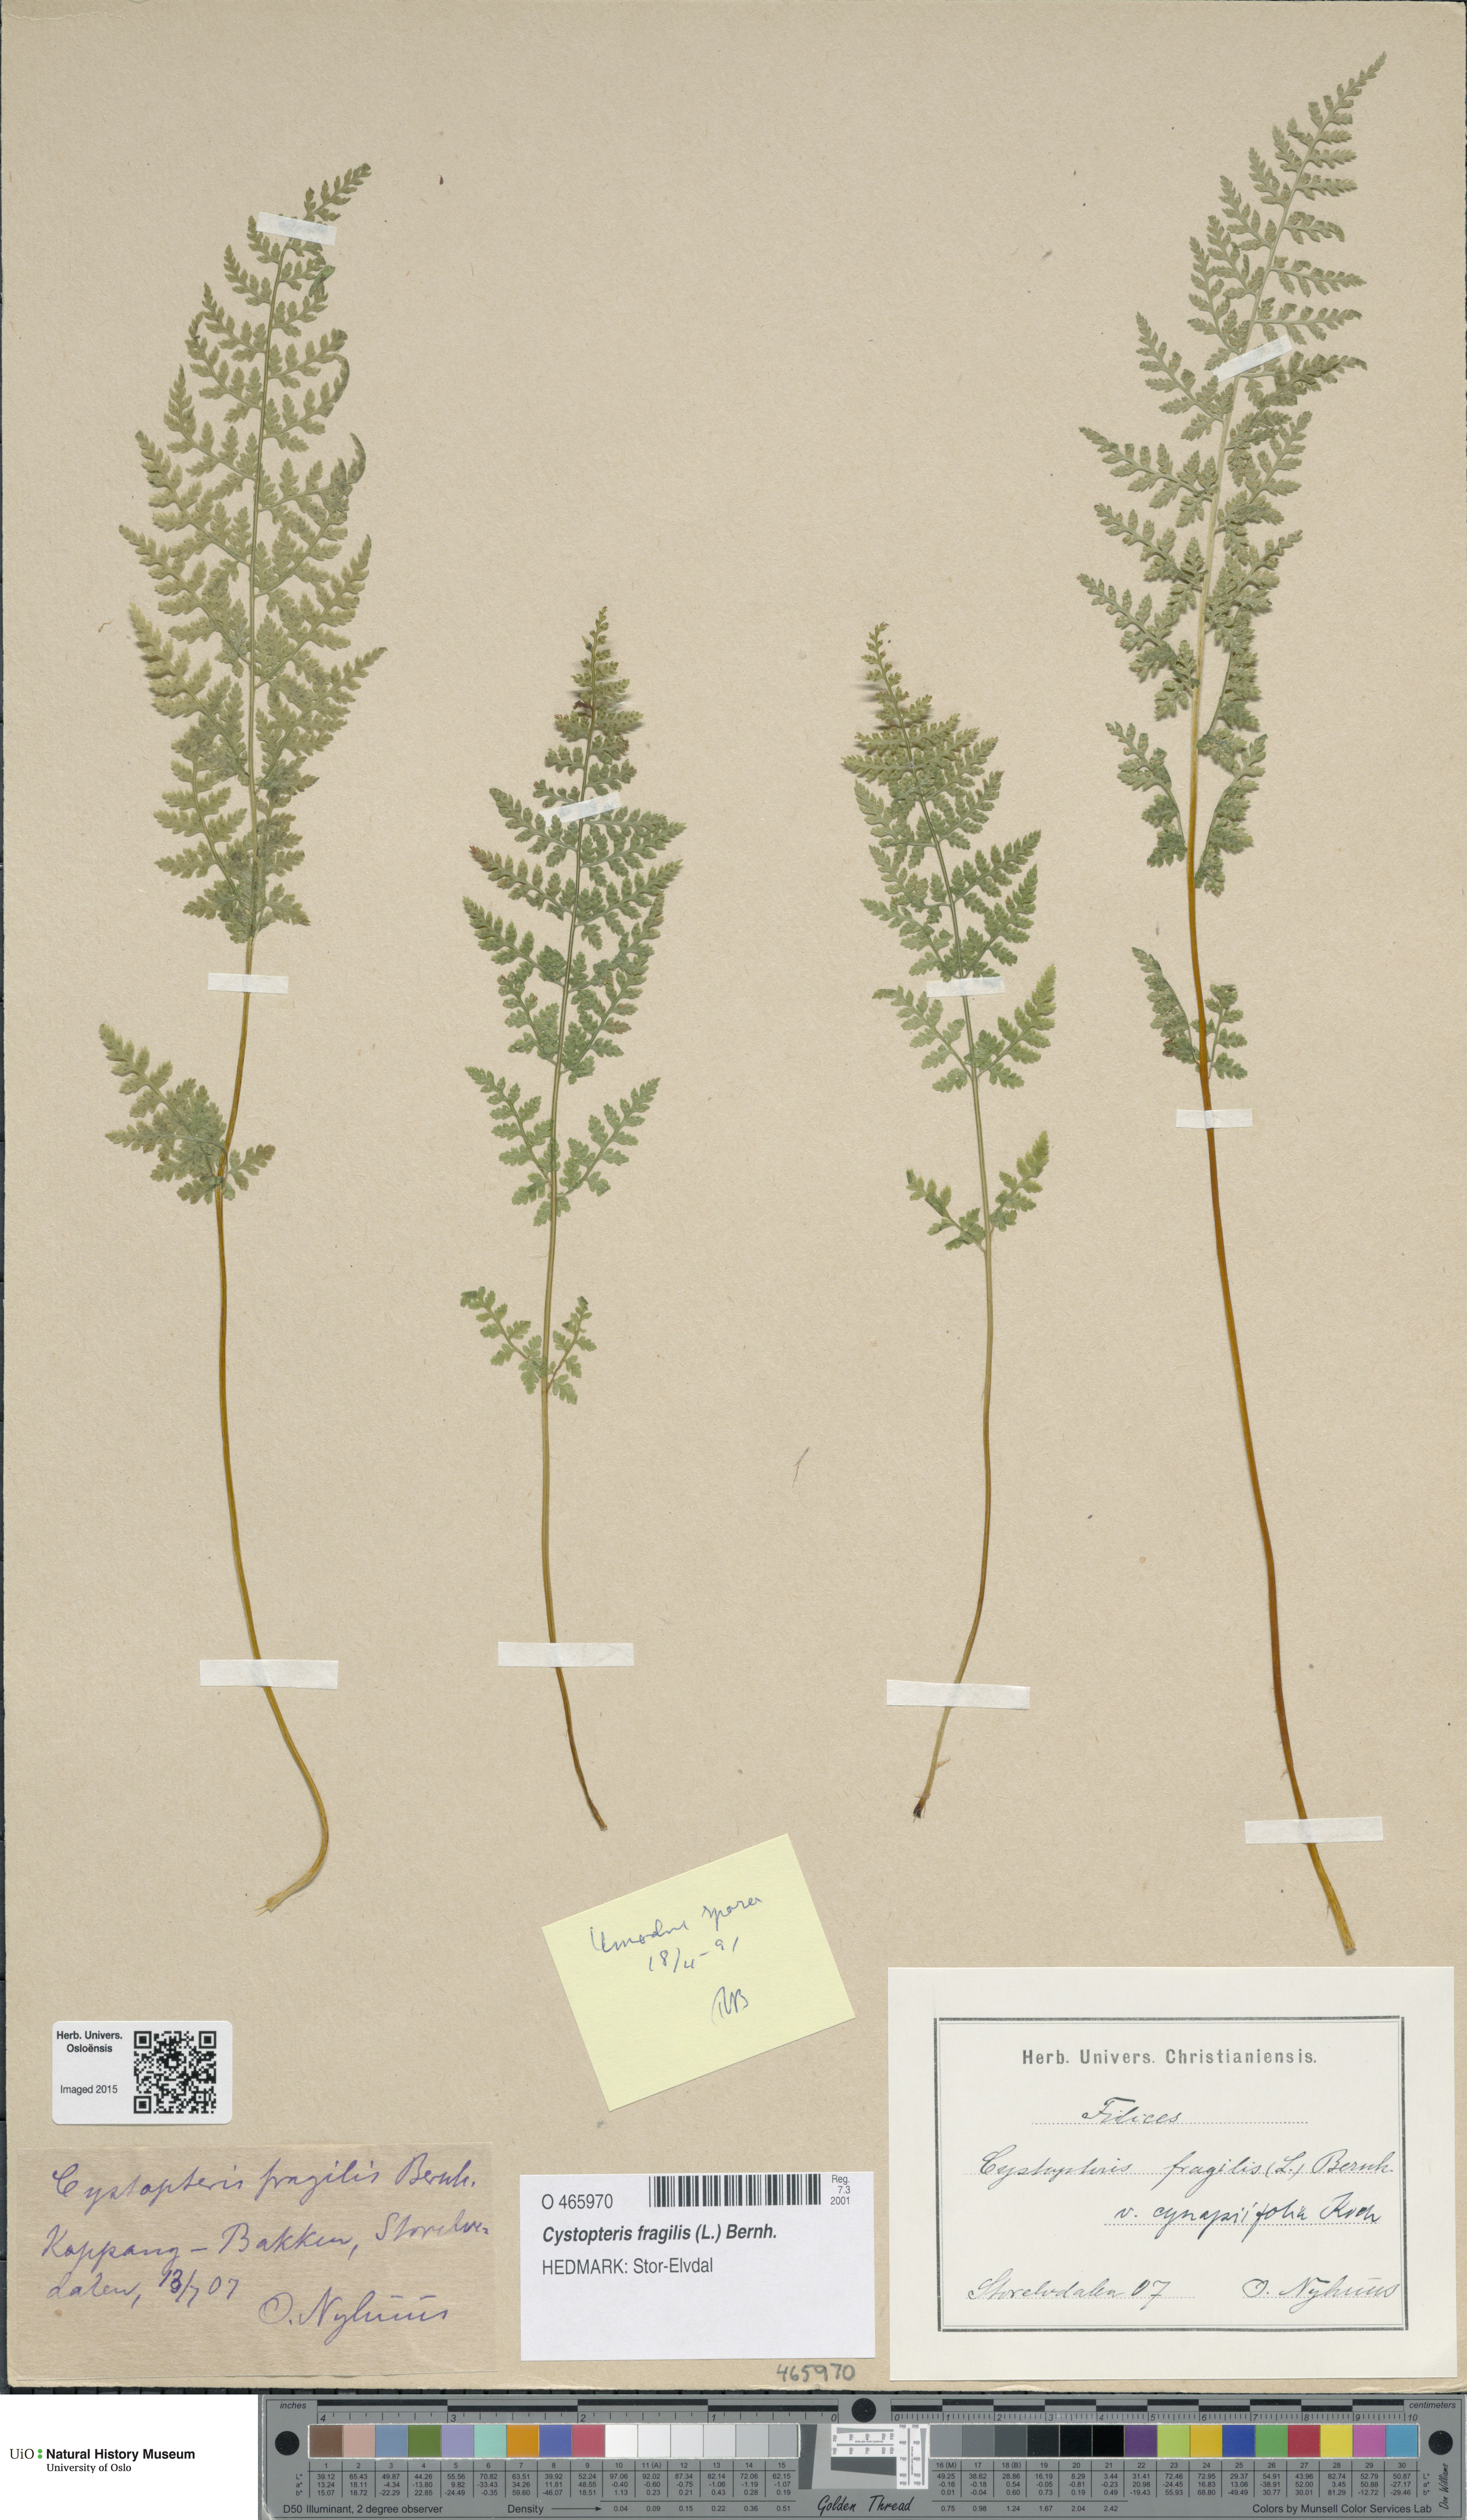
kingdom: Plantae
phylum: Tracheophyta
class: Polypodiopsida
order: Polypodiales
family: Cystopteridaceae
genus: Cystopteris
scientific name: Cystopteris fragilis
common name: Brittle bladder fern
